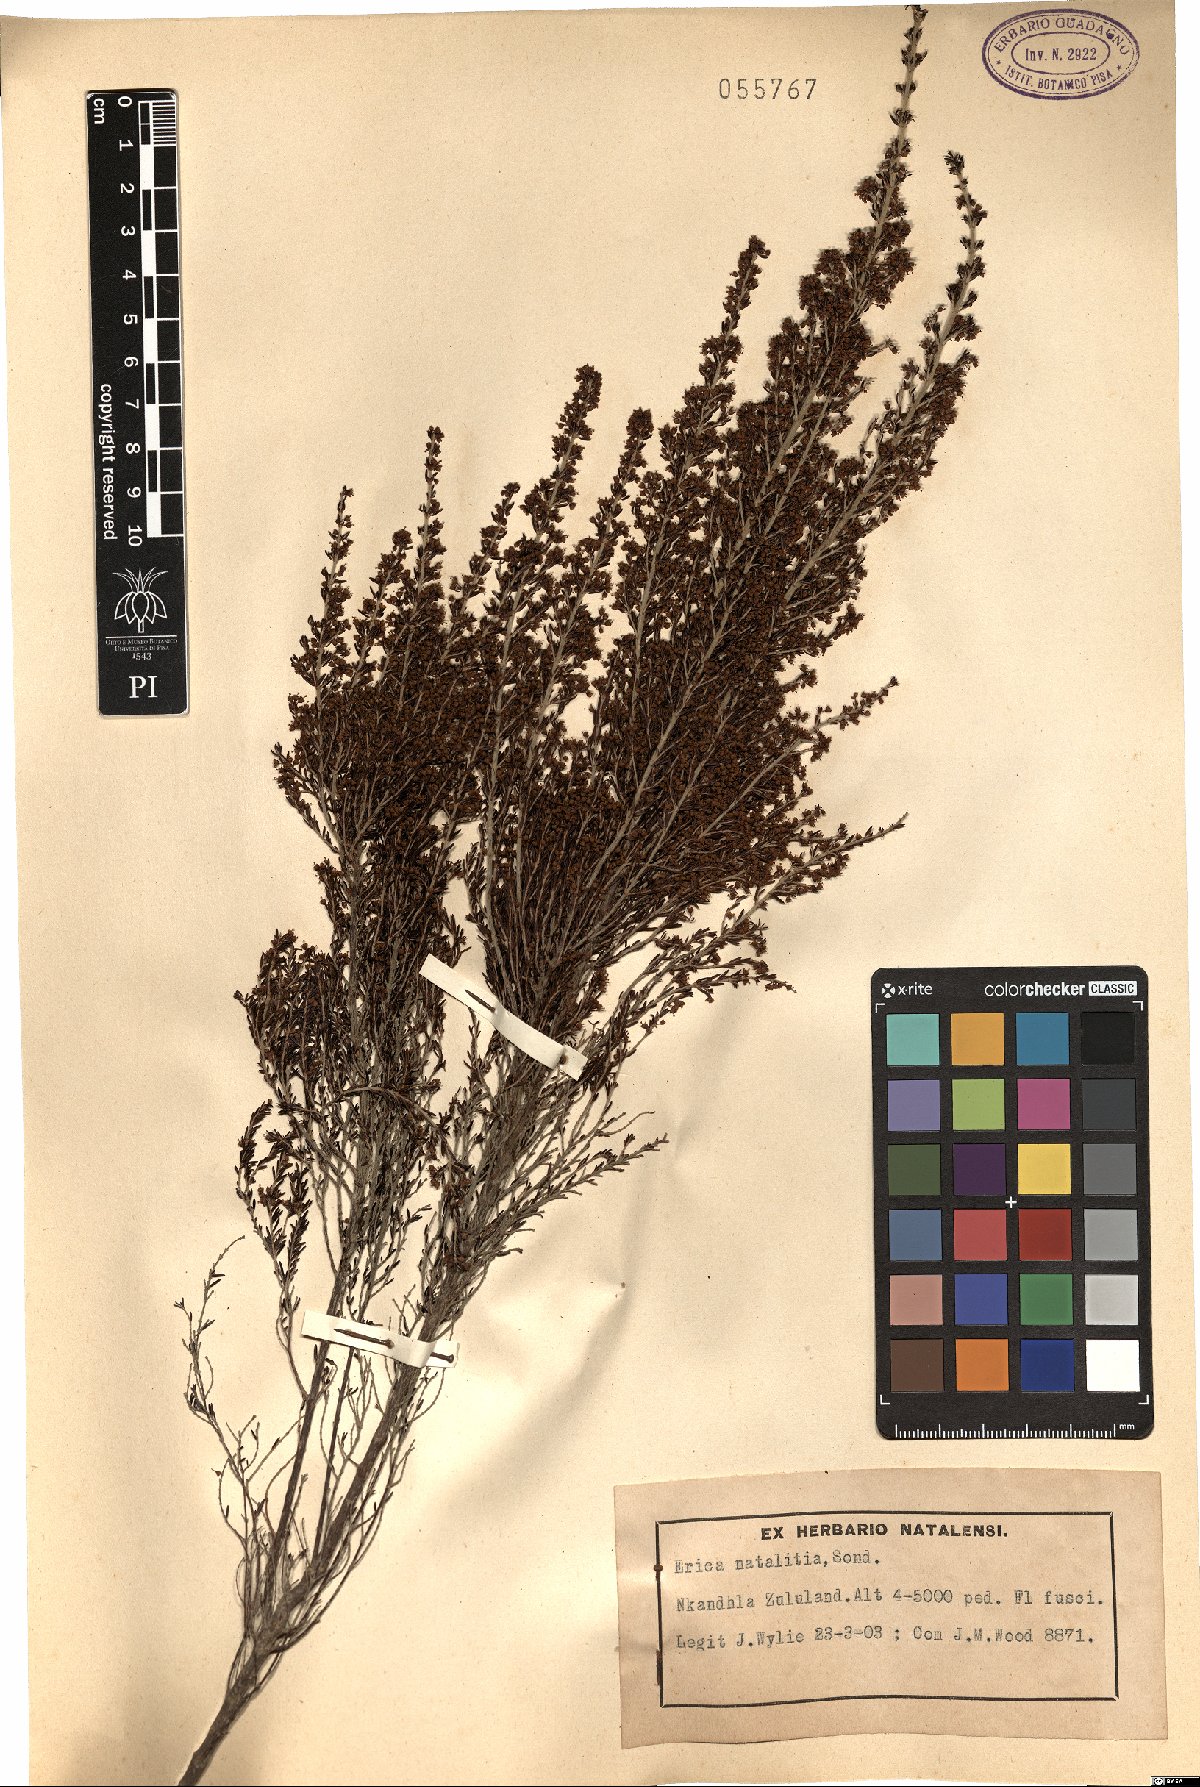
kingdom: Plantae
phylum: Tracheophyta
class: Magnoliopsida
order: Ericales
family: Ericaceae
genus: Erica
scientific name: Erica natalitia
